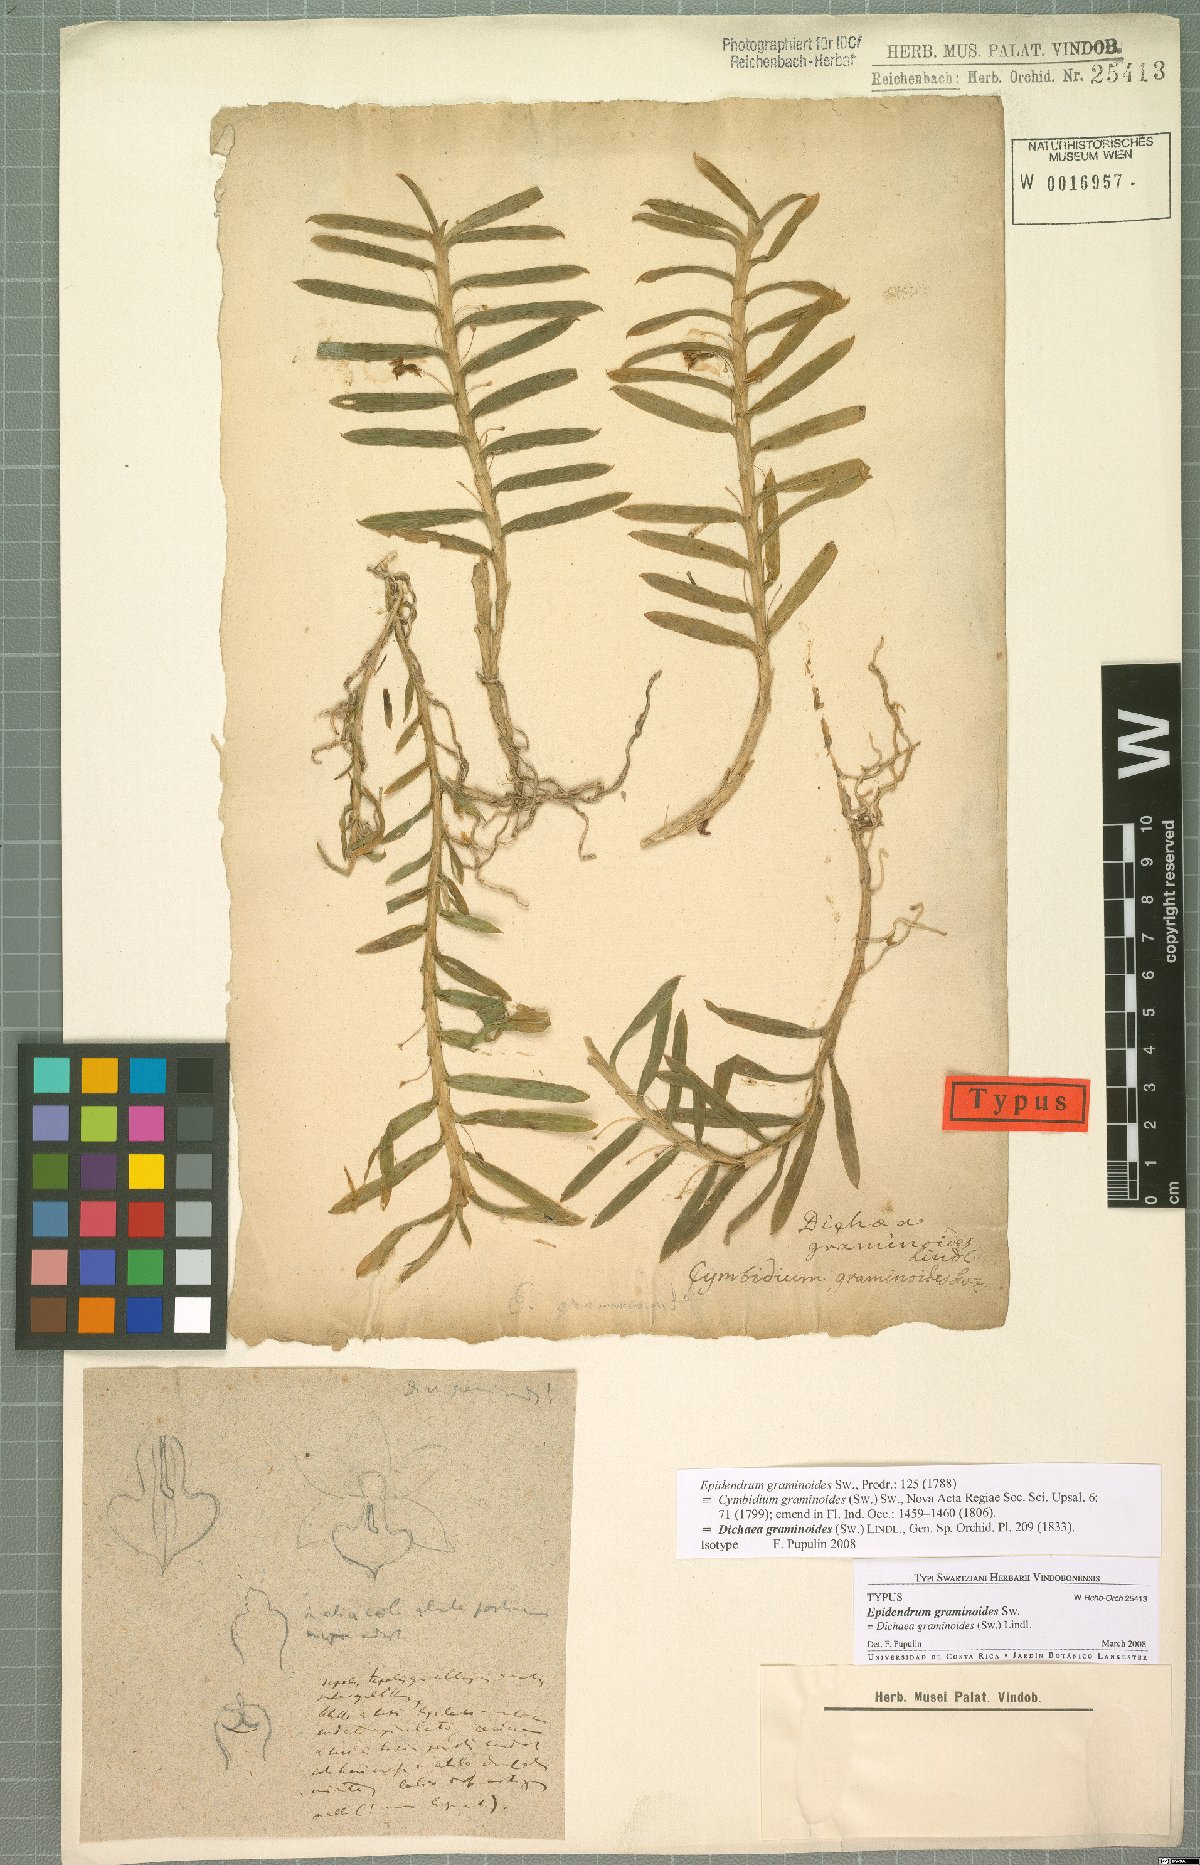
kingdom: Plantae
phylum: Tracheophyta
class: Liliopsida
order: Asparagales
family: Orchidaceae
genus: Dichaea
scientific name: Dichaea graminoides
